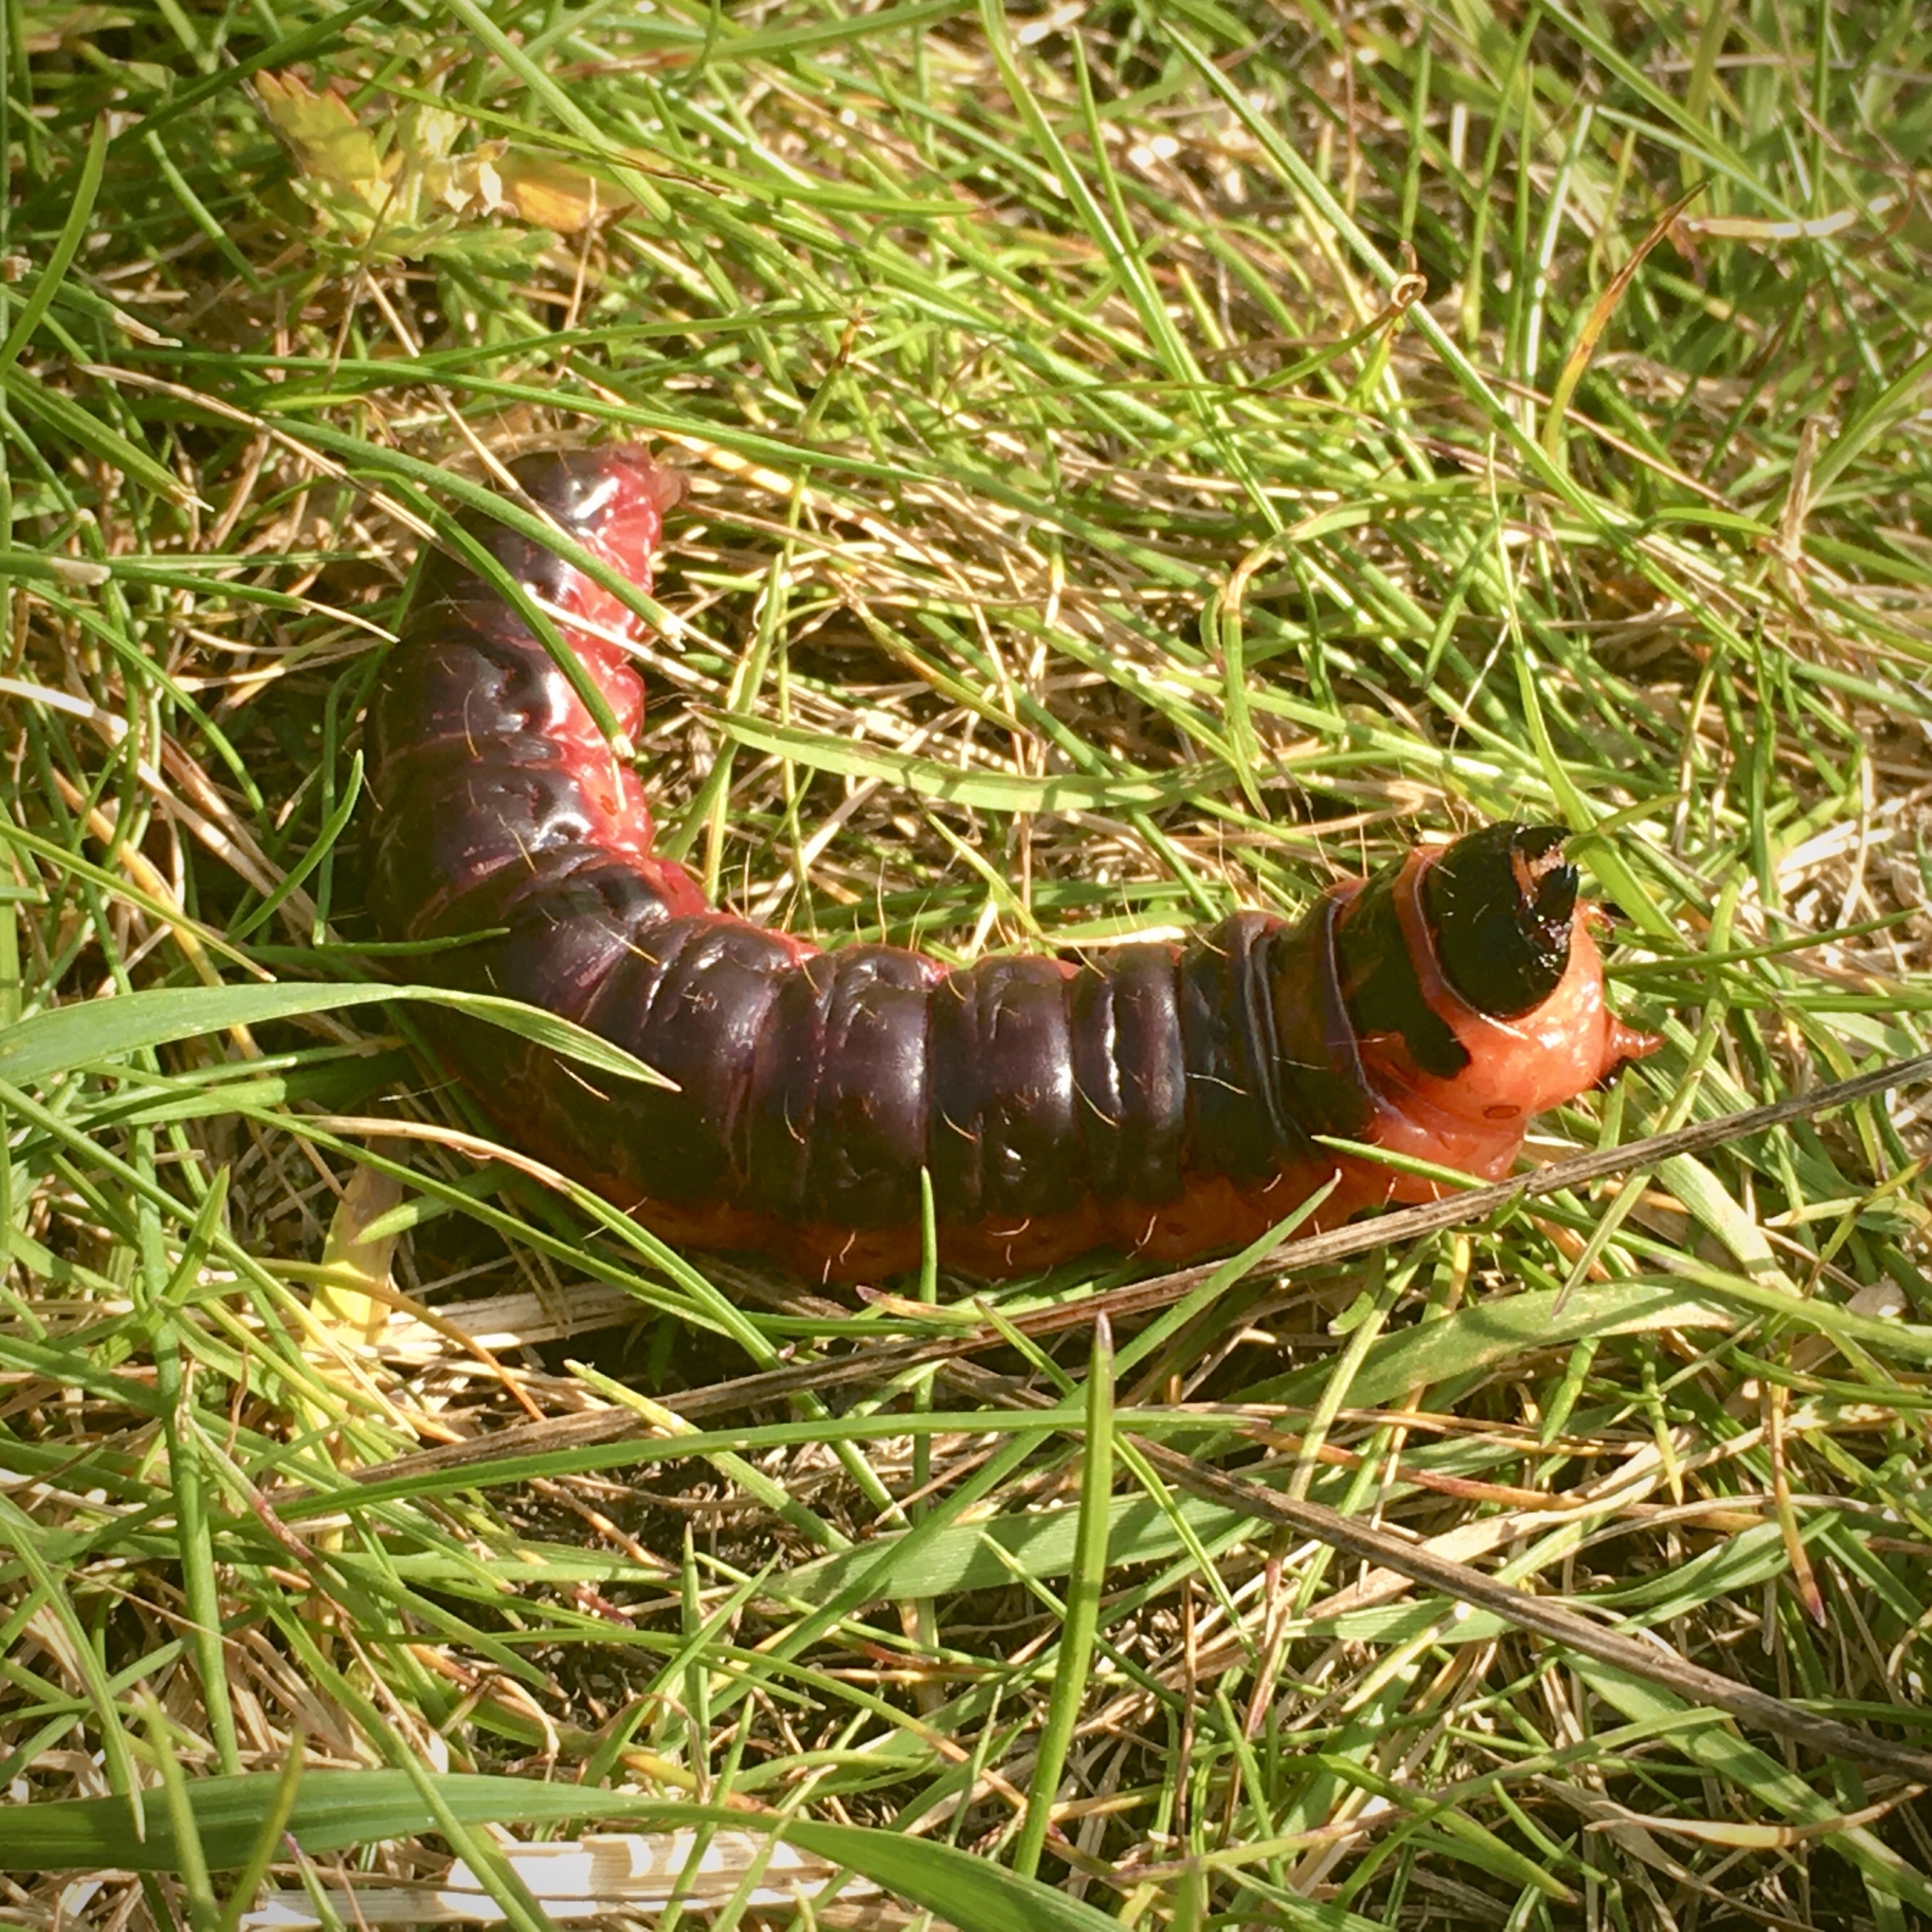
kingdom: Animalia
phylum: Arthropoda
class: Insecta
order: Lepidoptera
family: Cossidae
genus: Cossus
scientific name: Cossus cossus
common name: Pileborer
